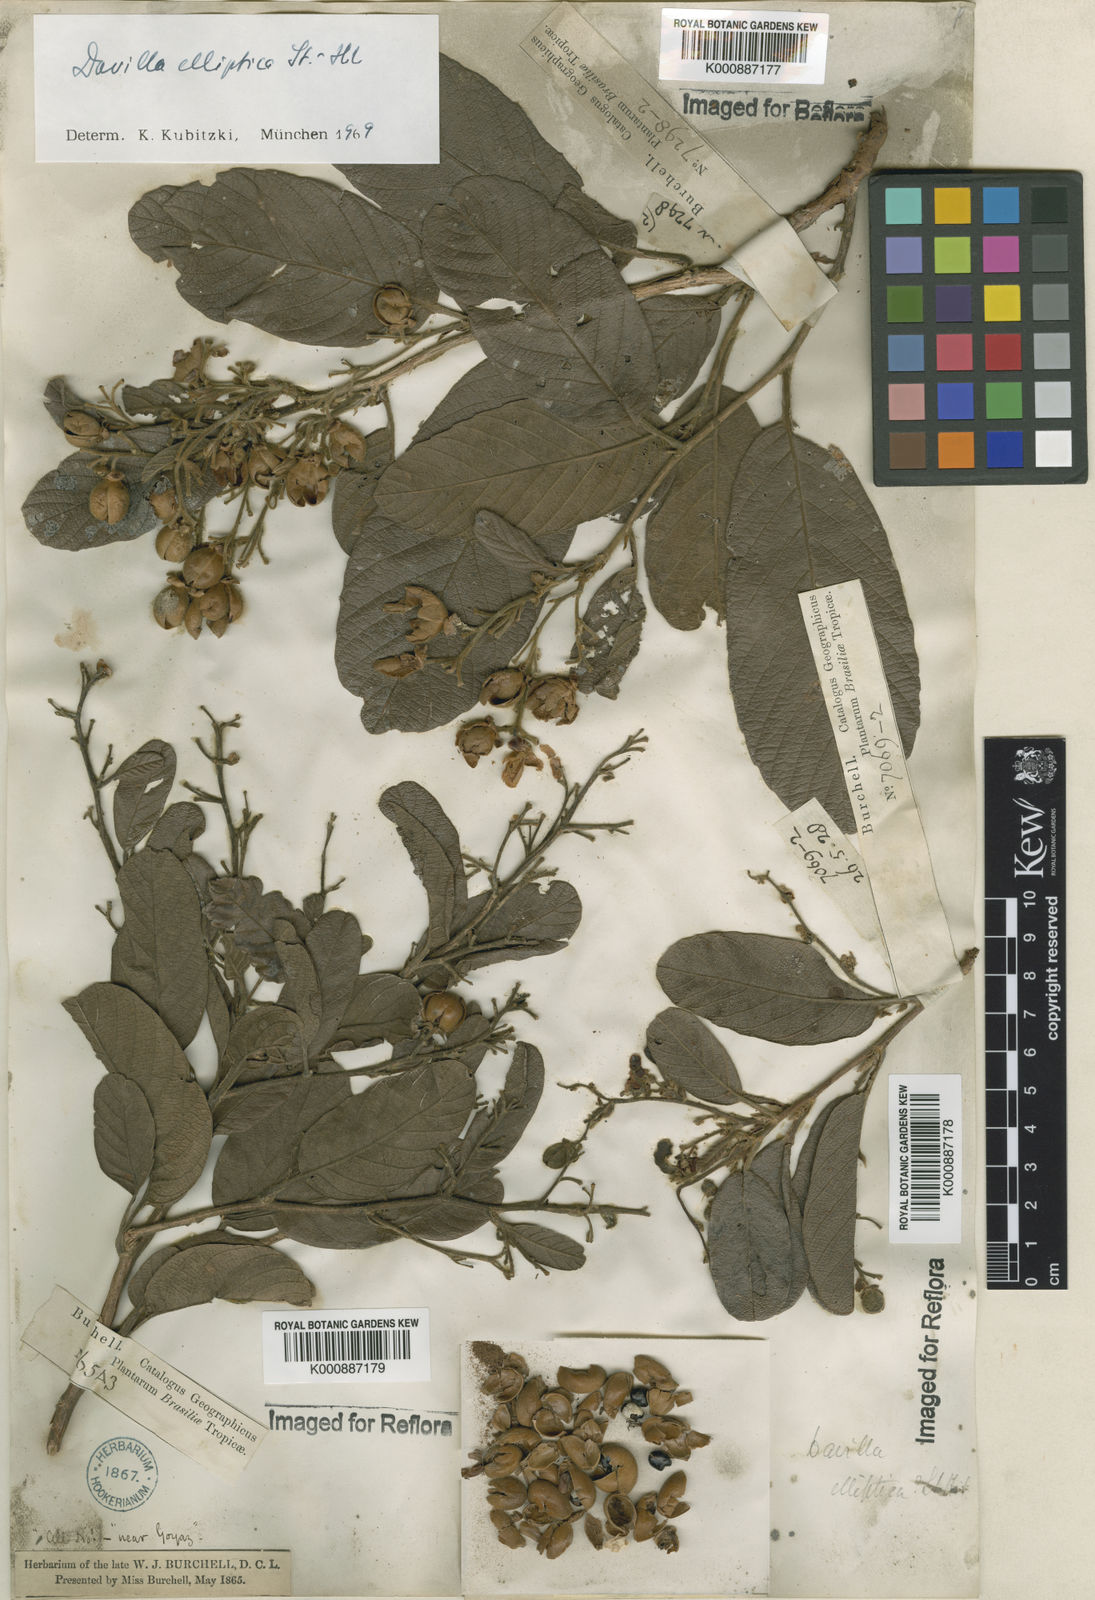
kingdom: Plantae
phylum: Tracheophyta
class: Magnoliopsida
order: Dilleniales
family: Dilleniaceae
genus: Davilla
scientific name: Davilla elliptica
